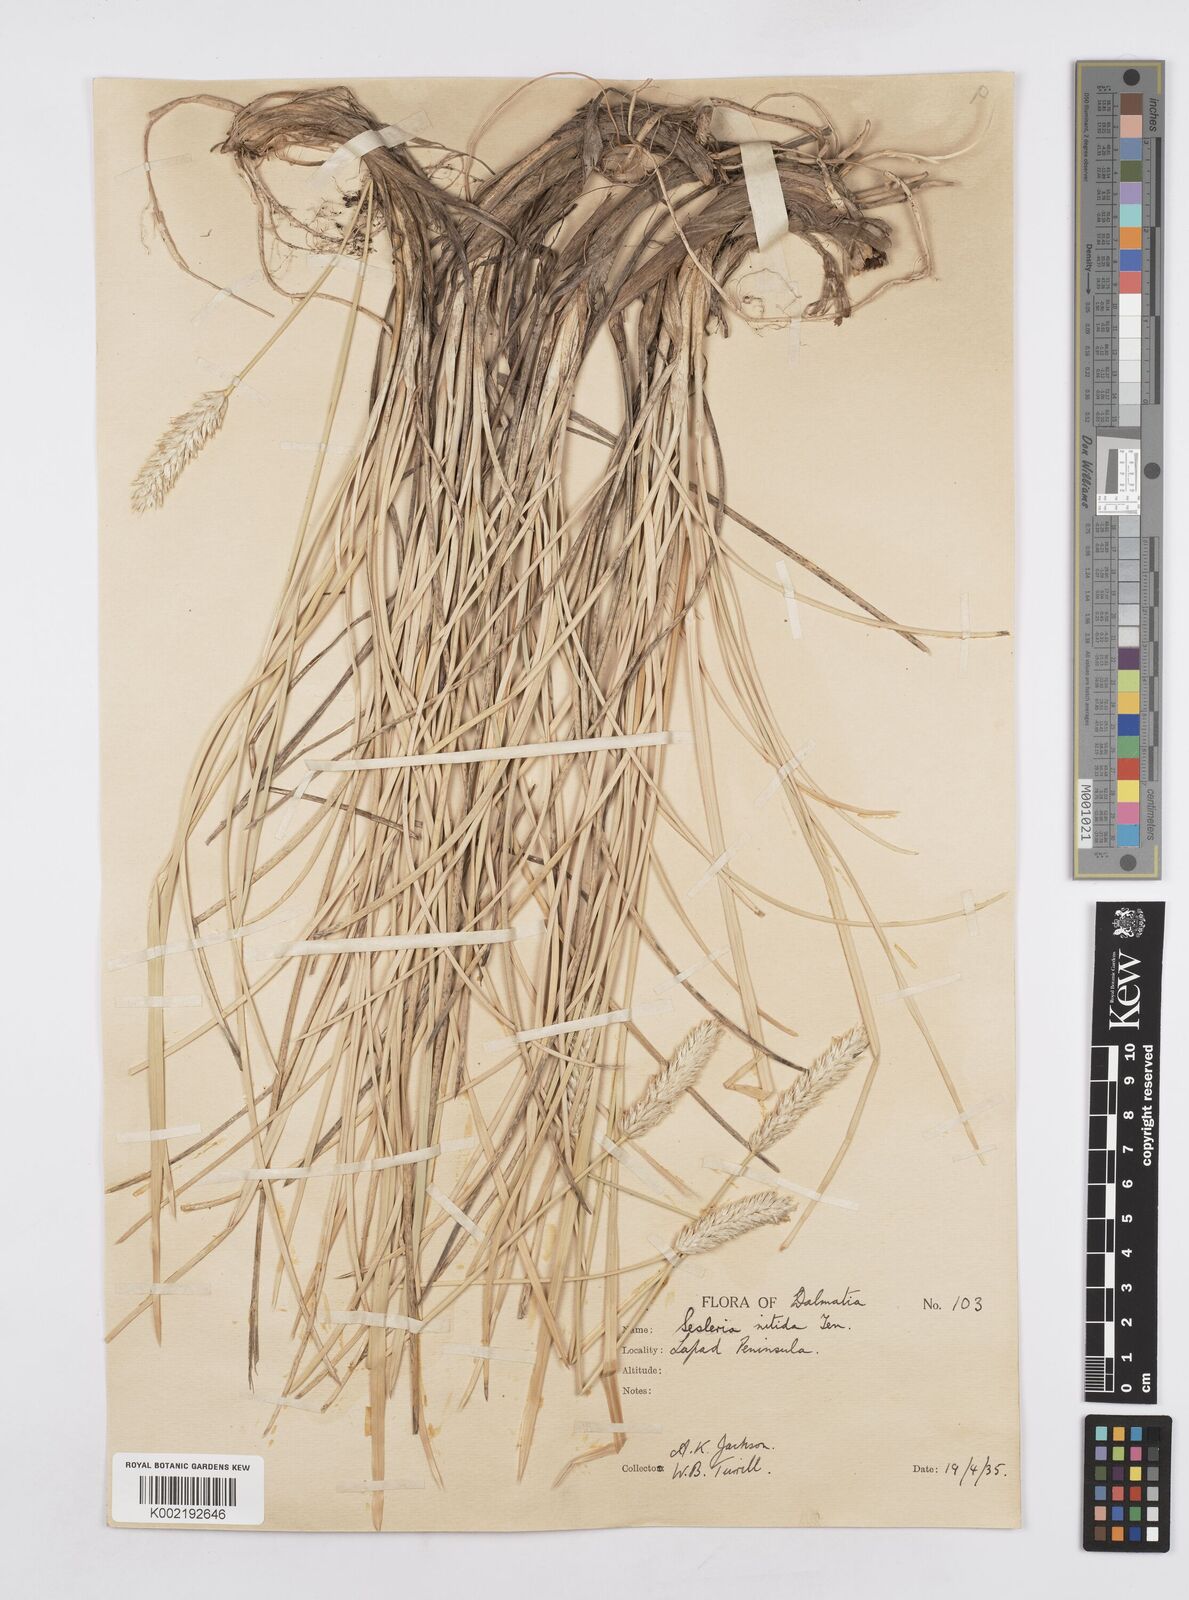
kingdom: Plantae
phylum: Tracheophyta
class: Liliopsida
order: Poales
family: Poaceae
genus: Sesleria
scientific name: Sesleria robusta
